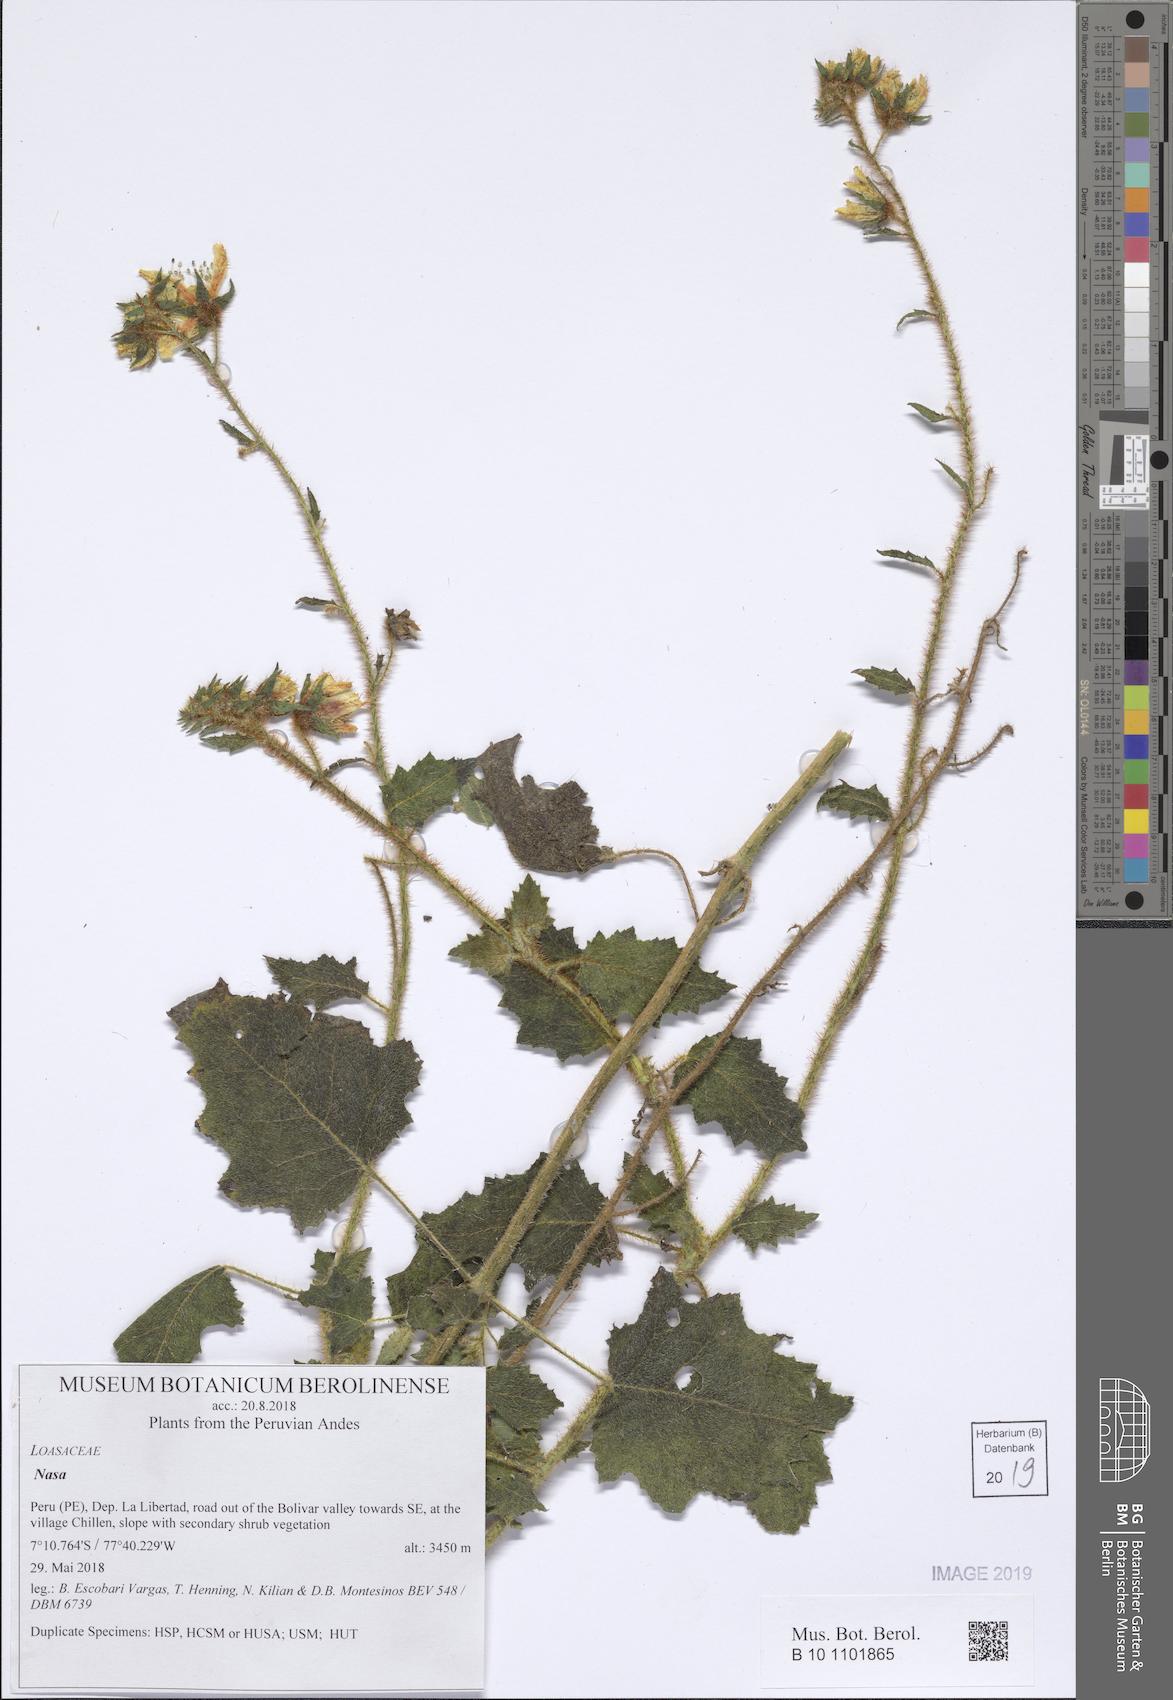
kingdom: Plantae
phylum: Tracheophyta
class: Magnoliopsida
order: Cornales
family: Loasaceae
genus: Nasa
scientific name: Nasa stolonifera
